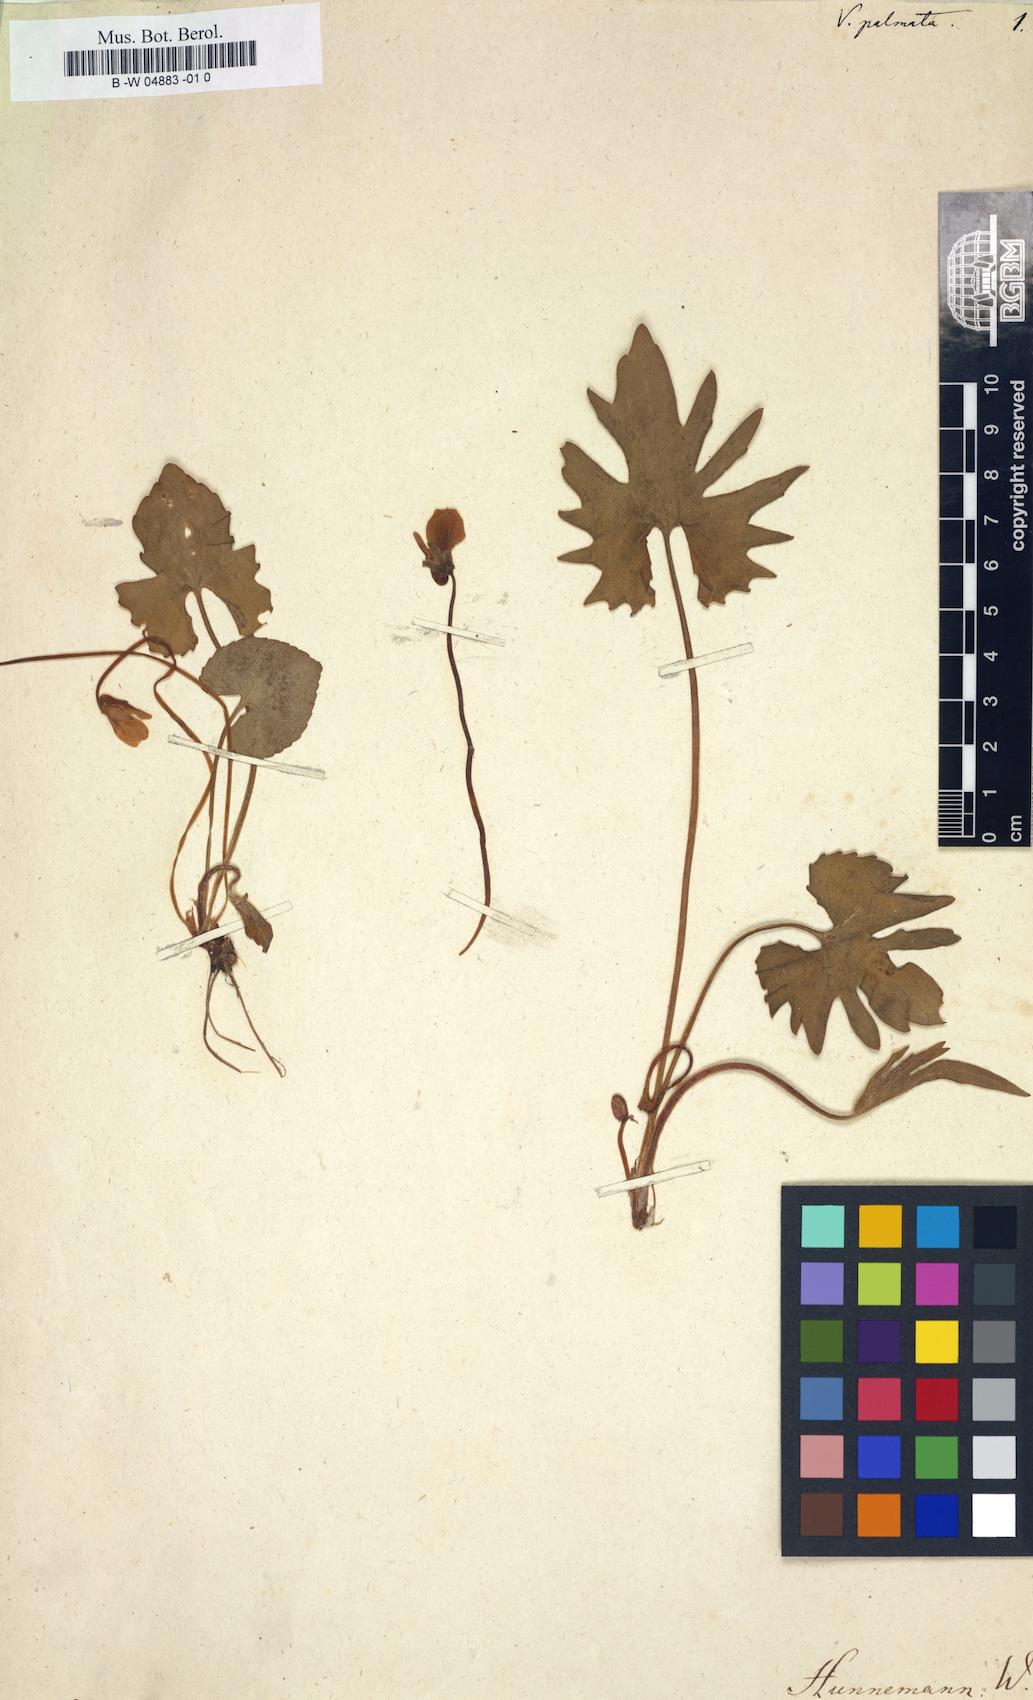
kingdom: Plantae
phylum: Tracheophyta
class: Magnoliopsida
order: Malpighiales
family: Violaceae
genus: Viola
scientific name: Viola palmata
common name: Early blue violet
